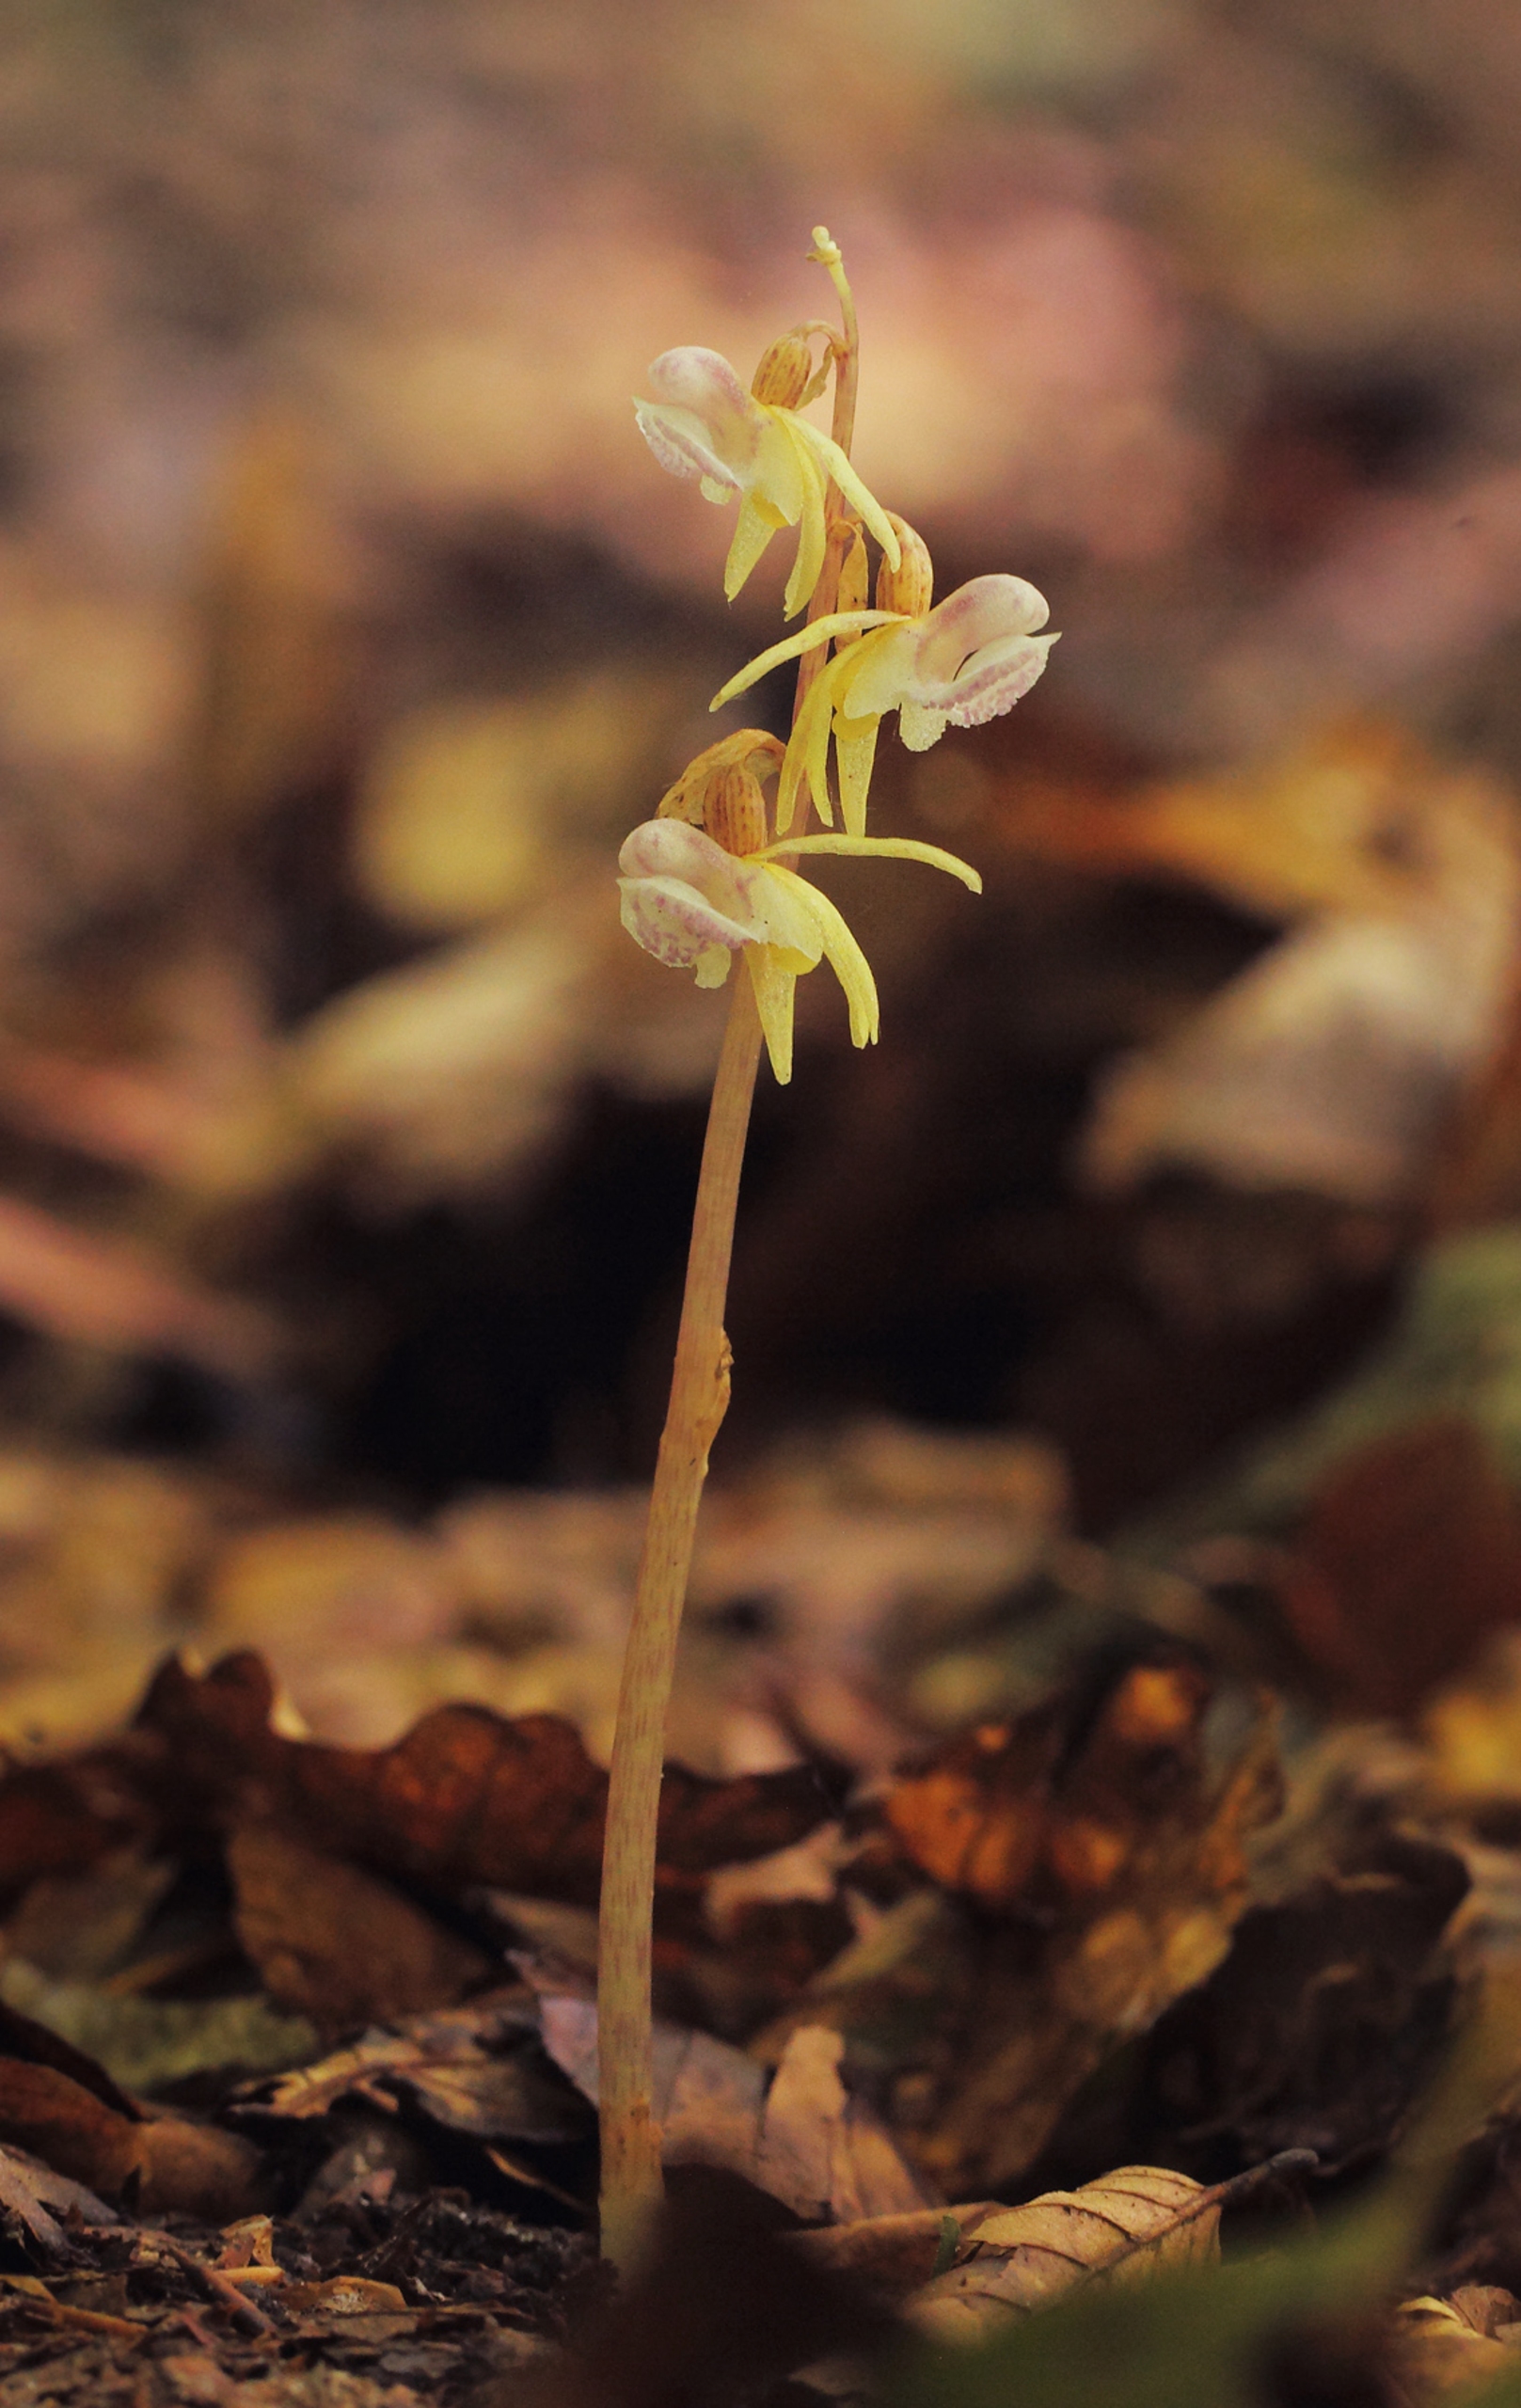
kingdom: Plantae
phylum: Tracheophyta
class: Liliopsida
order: Asparagales
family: Orchidaceae
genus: Epipogium
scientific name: Epipogium aphyllum
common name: Knælæbe
